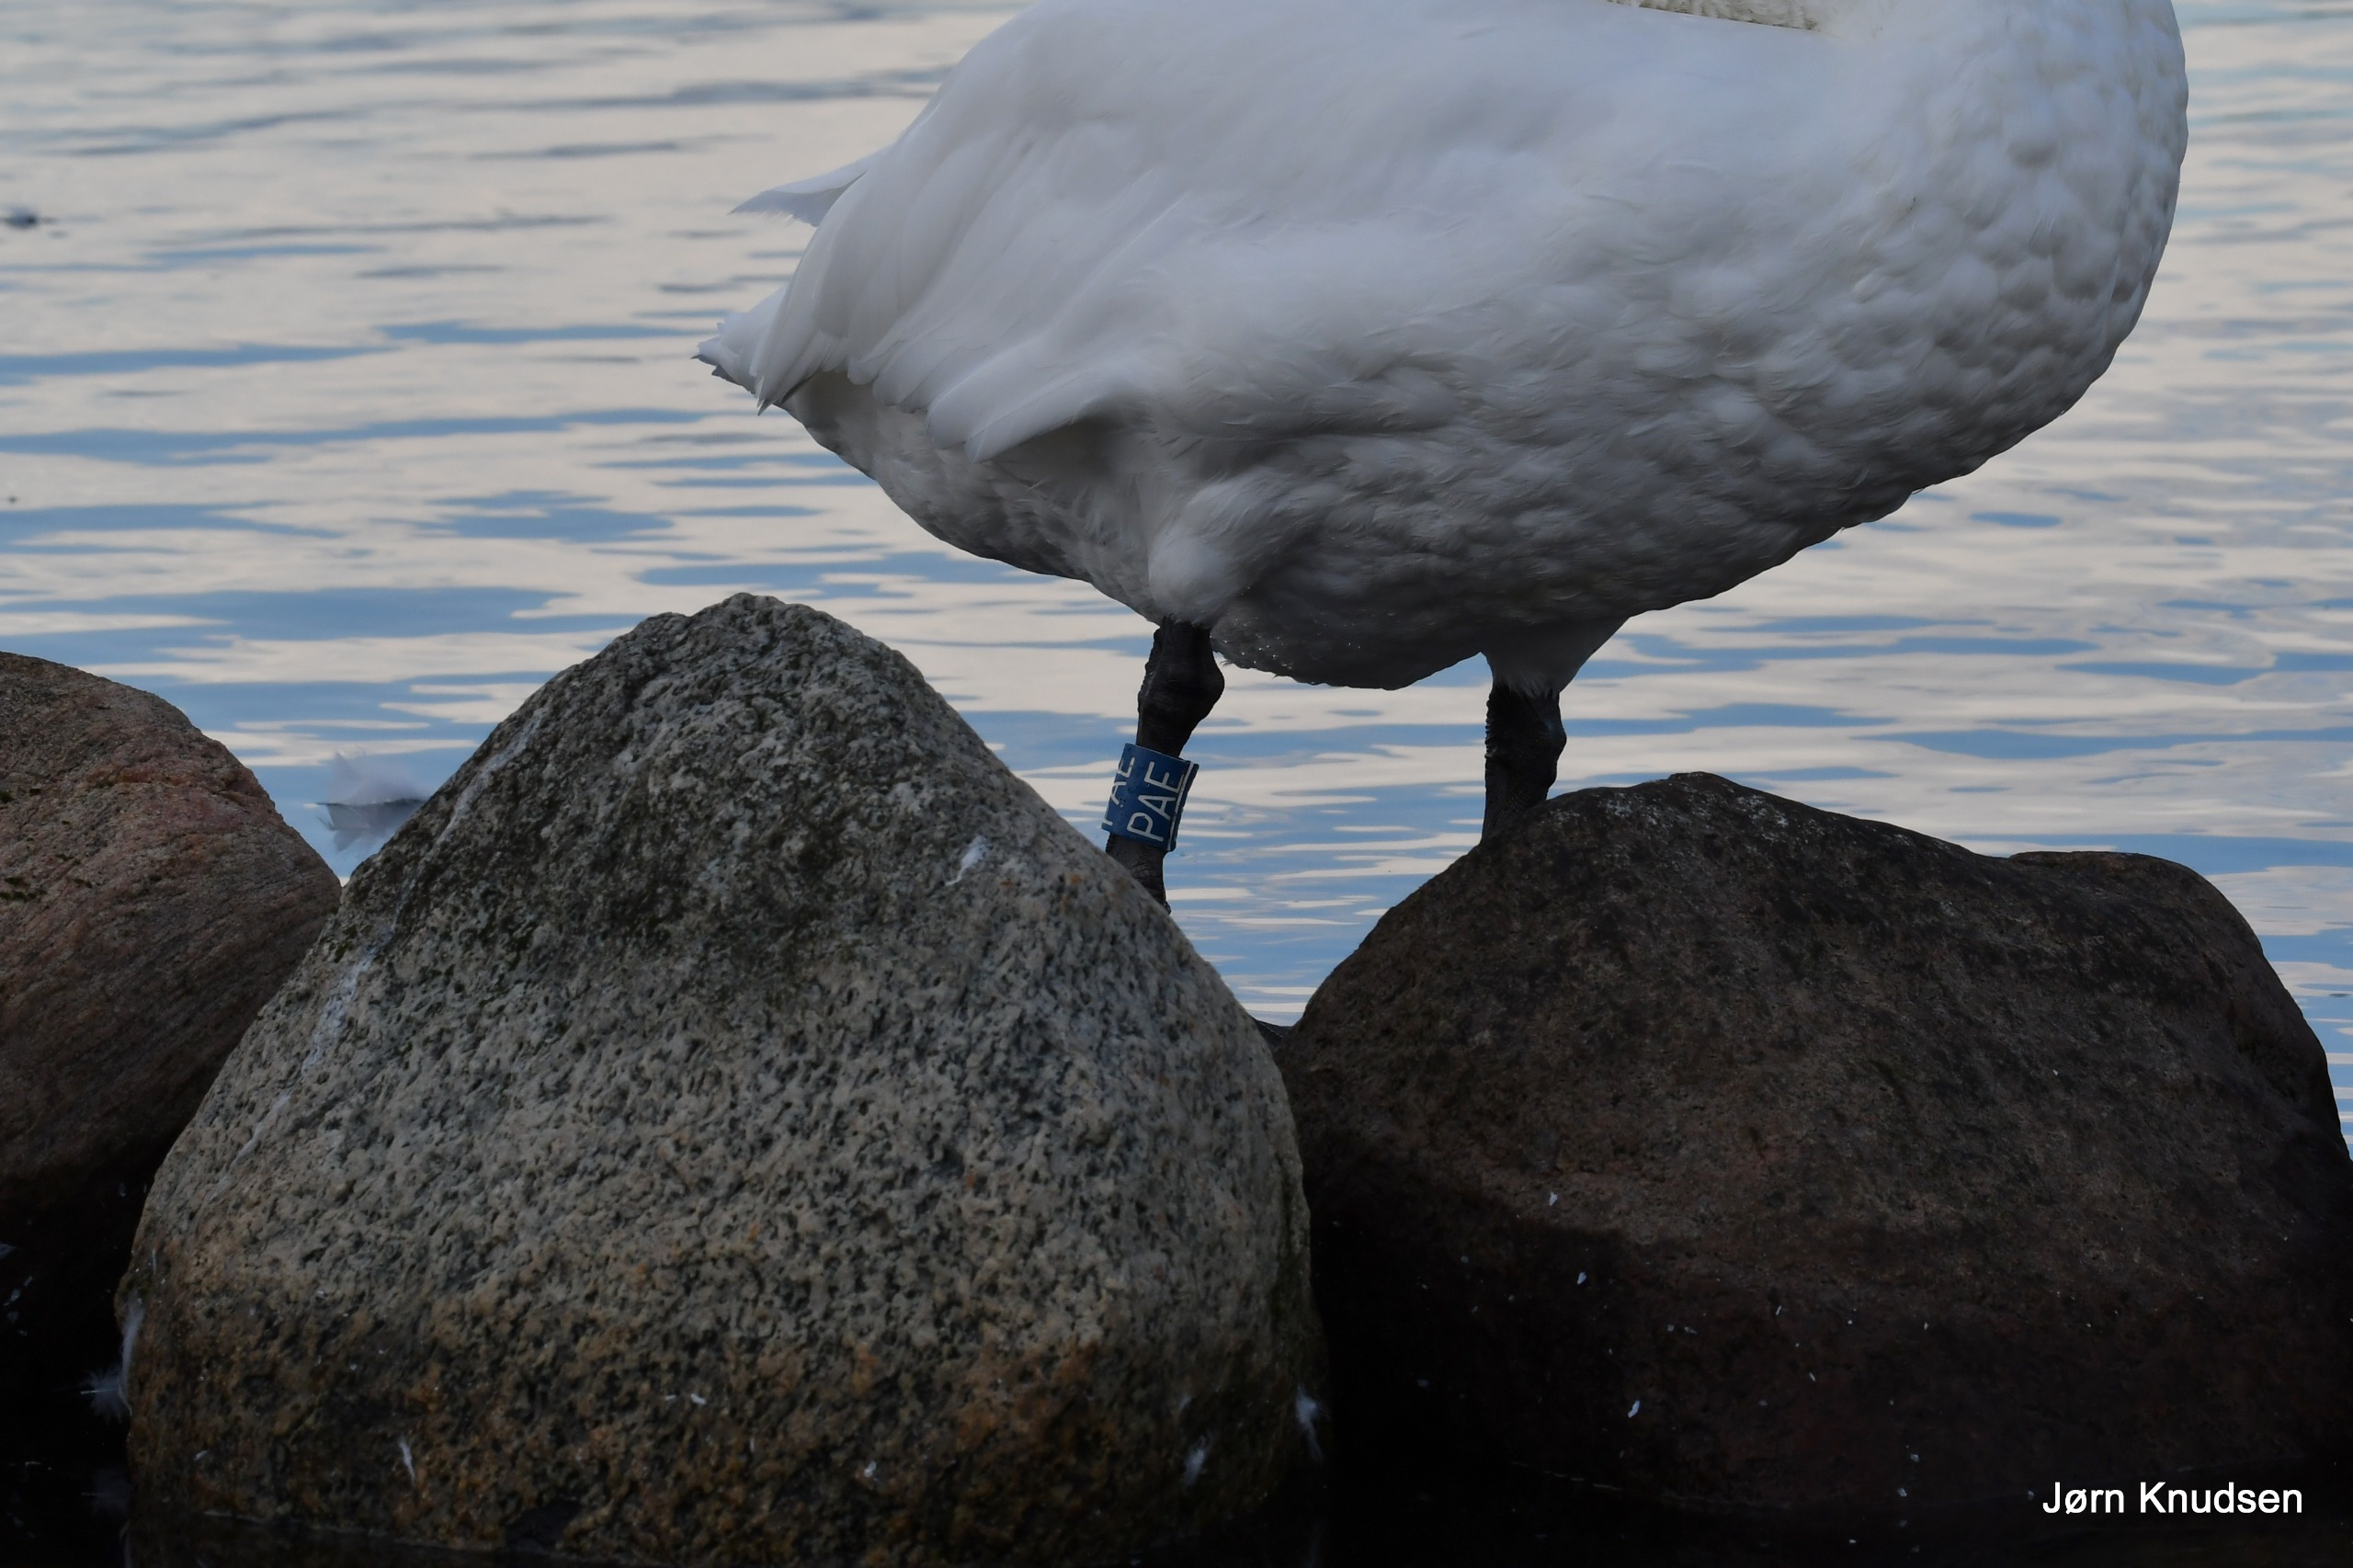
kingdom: Animalia
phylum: Chordata
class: Aves
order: Anseriformes
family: Anatidae
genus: Cygnus
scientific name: Cygnus olor
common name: Knopsvane
